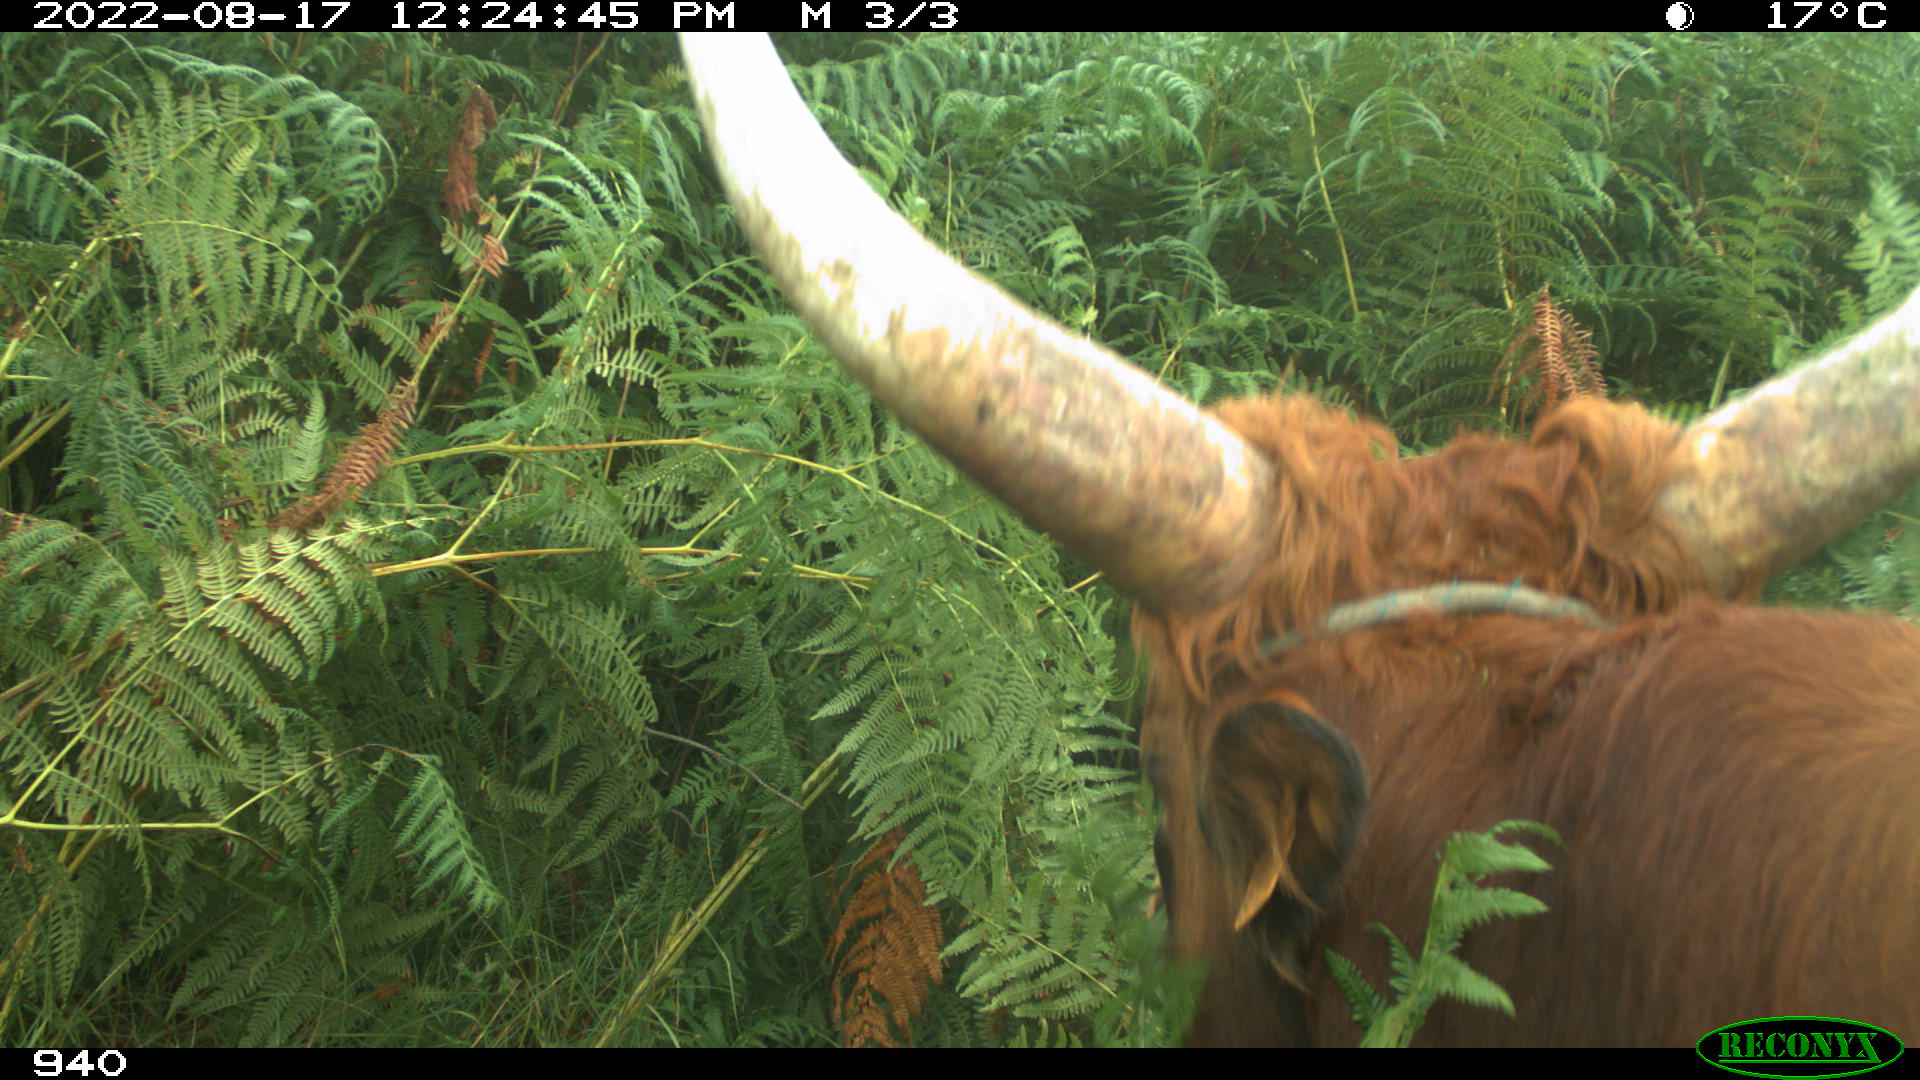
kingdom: Animalia
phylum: Chordata
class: Mammalia
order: Artiodactyla
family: Bovidae
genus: Bos
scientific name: Bos taurus
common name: Domesticated cattle
